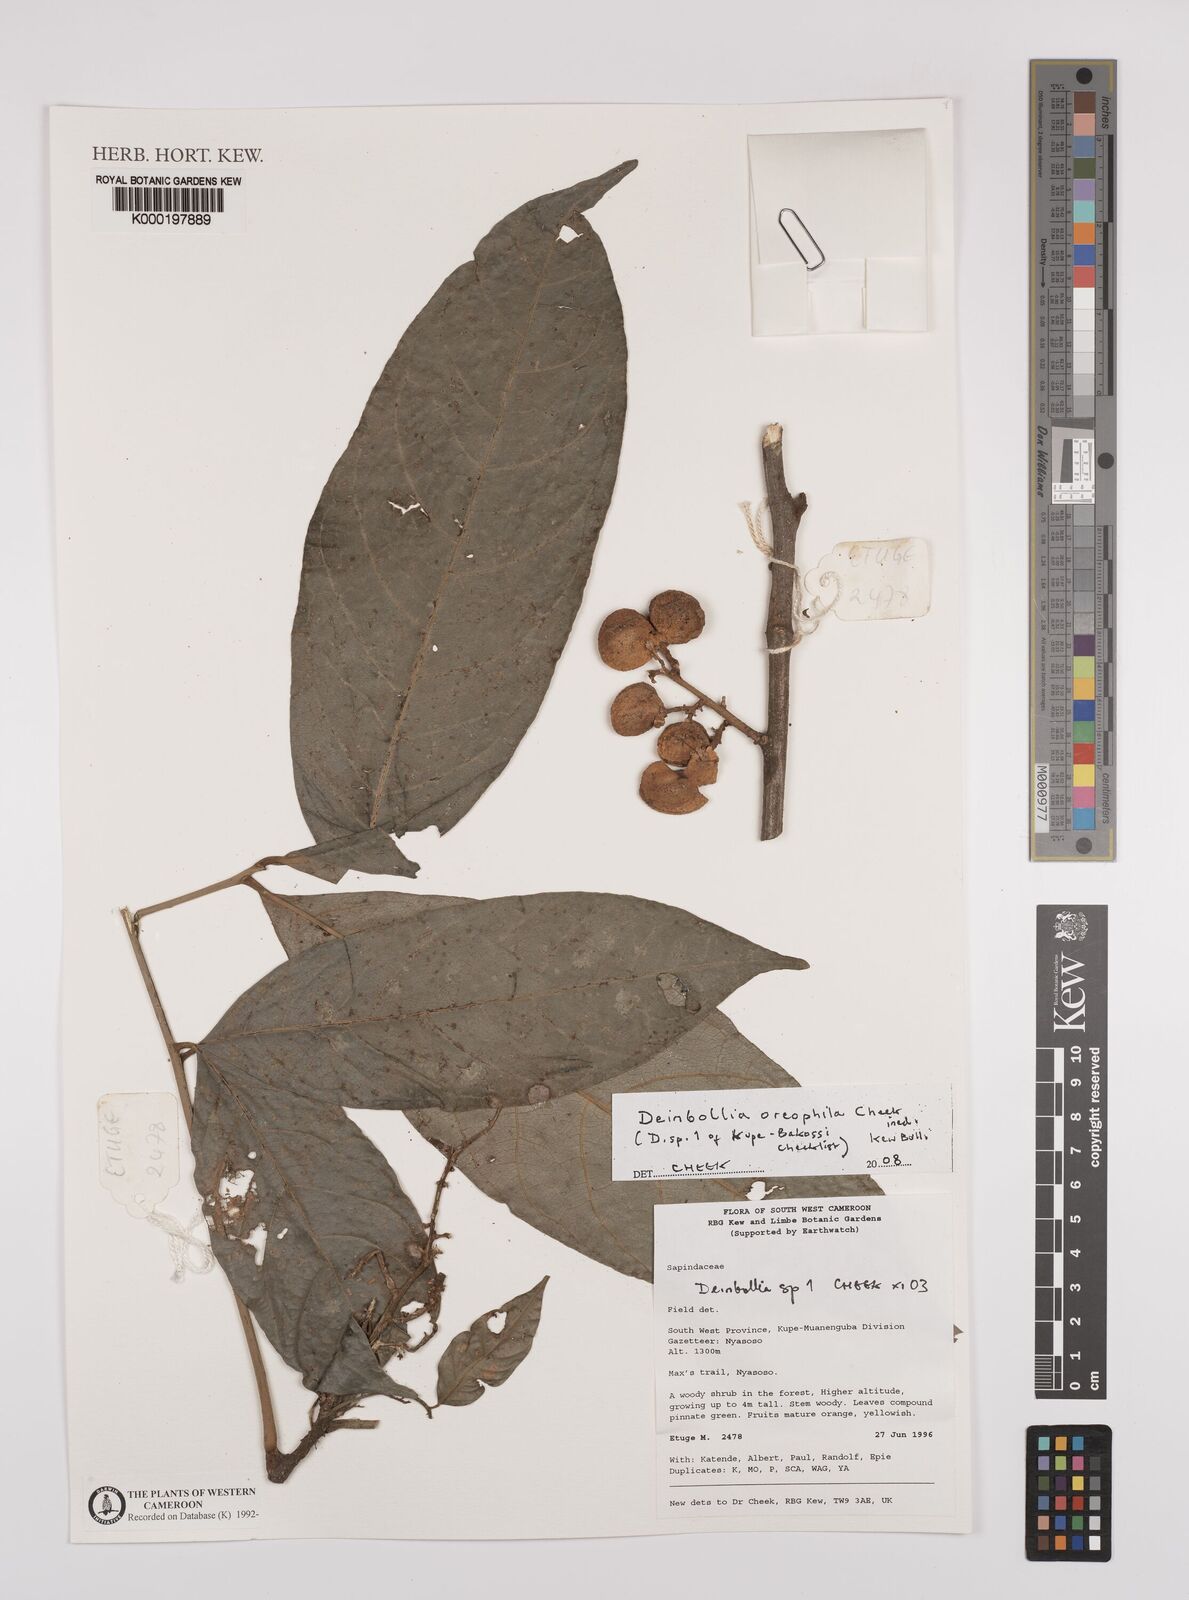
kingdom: Plantae
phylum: Tracheophyta
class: Magnoliopsida
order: Sapindales
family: Sapindaceae
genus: Deinbollia
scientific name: Deinbollia oreophila
